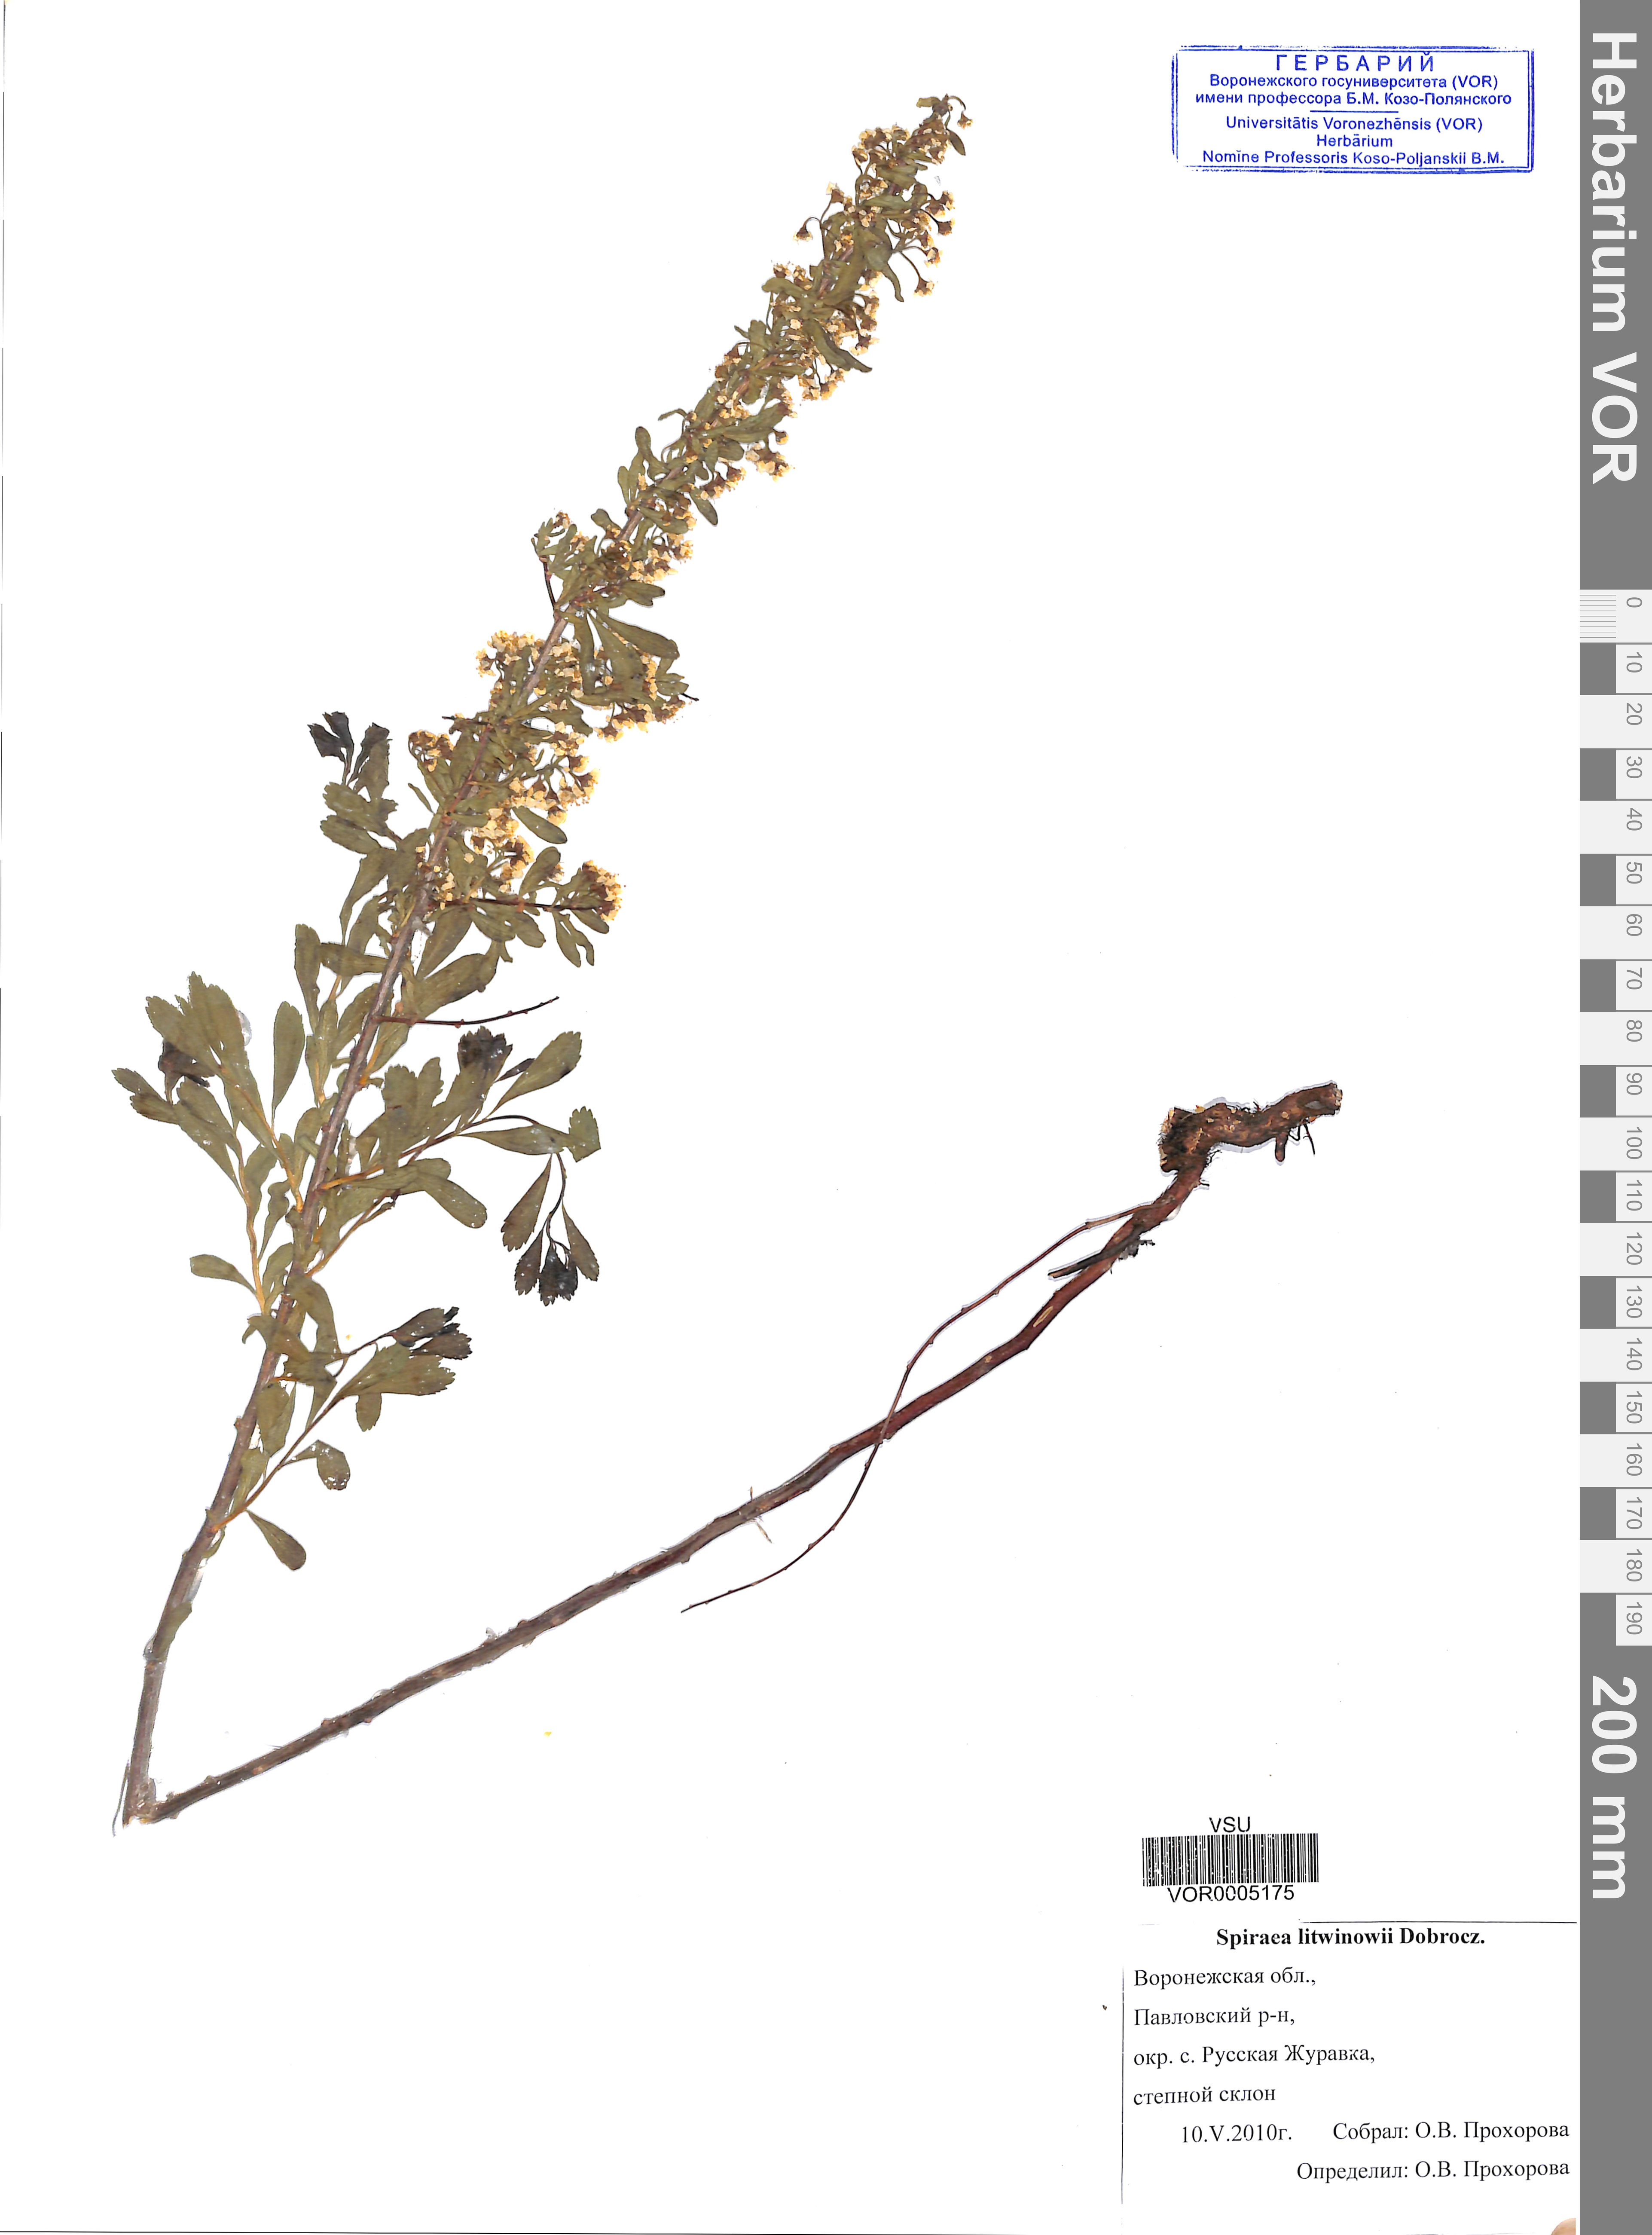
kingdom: Plantae
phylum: Tracheophyta
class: Magnoliopsida
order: Rosales
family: Rosaceae
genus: Spiraea
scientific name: Spiraea crenata
